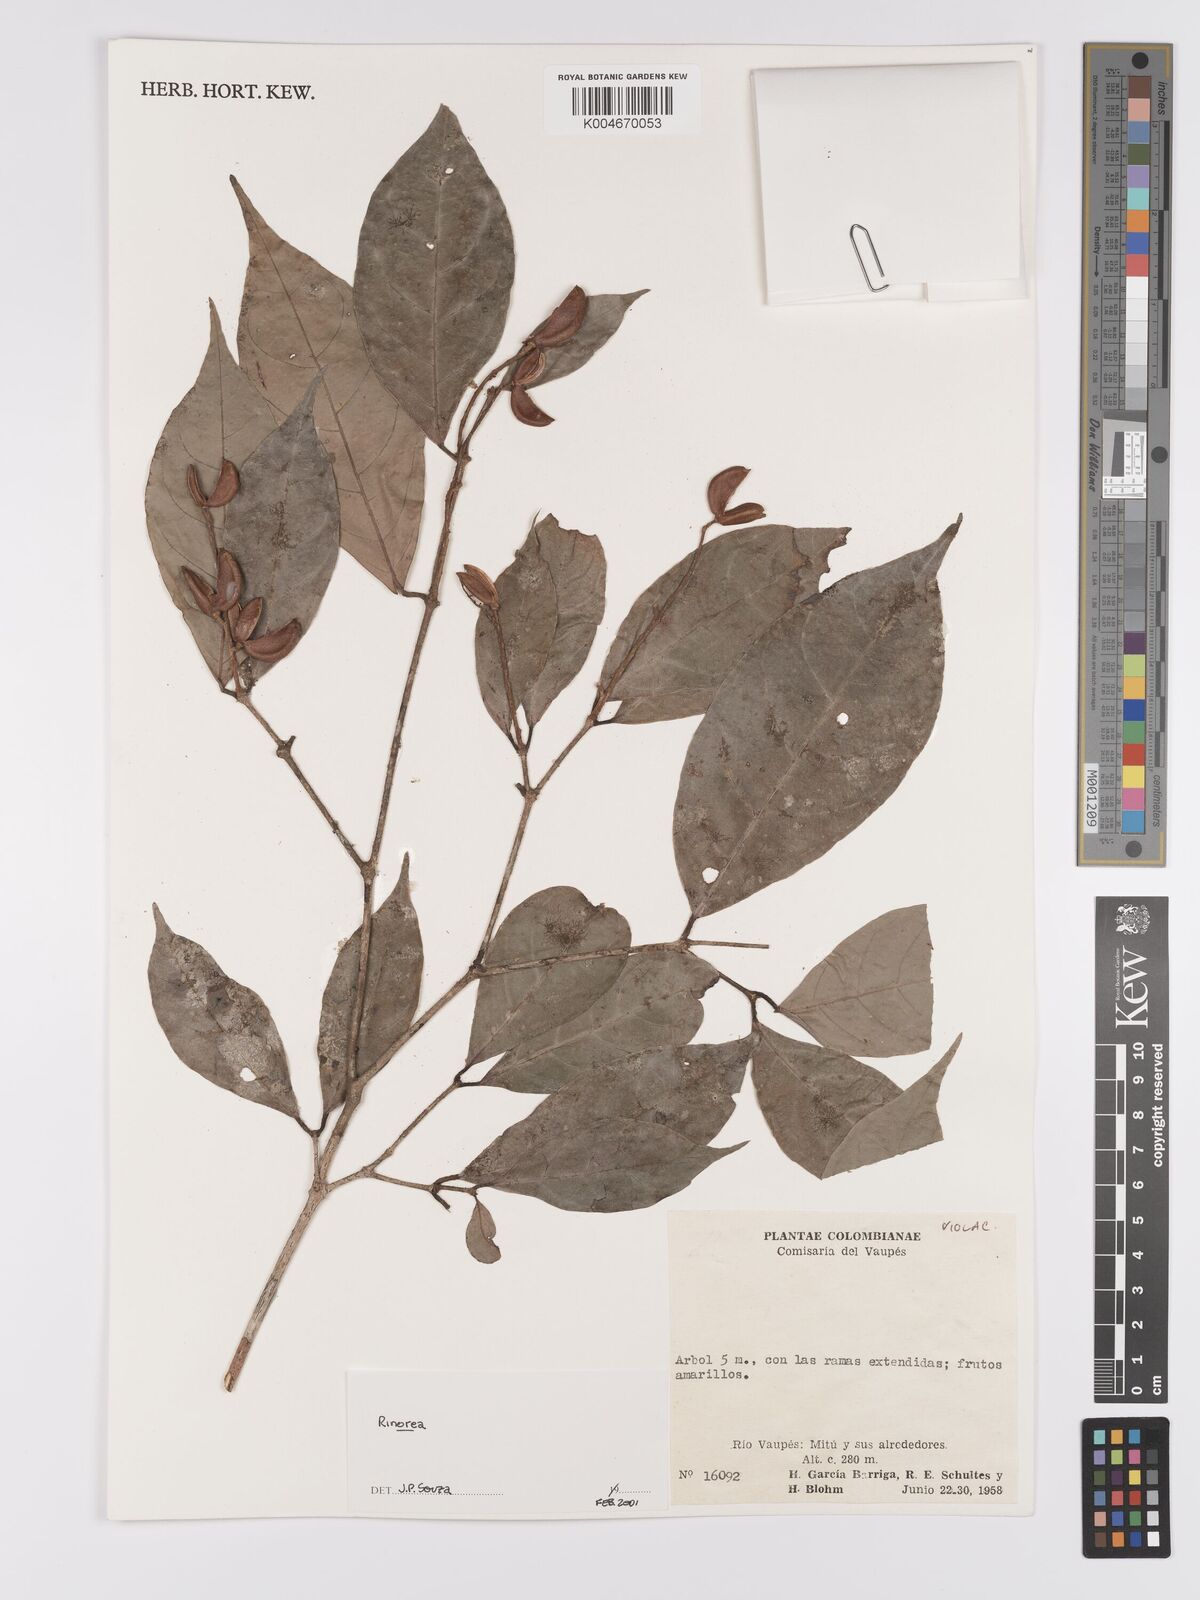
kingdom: Plantae
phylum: Tracheophyta
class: Magnoliopsida
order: Malpighiales
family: Violaceae
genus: Rinorea
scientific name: Rinorea
